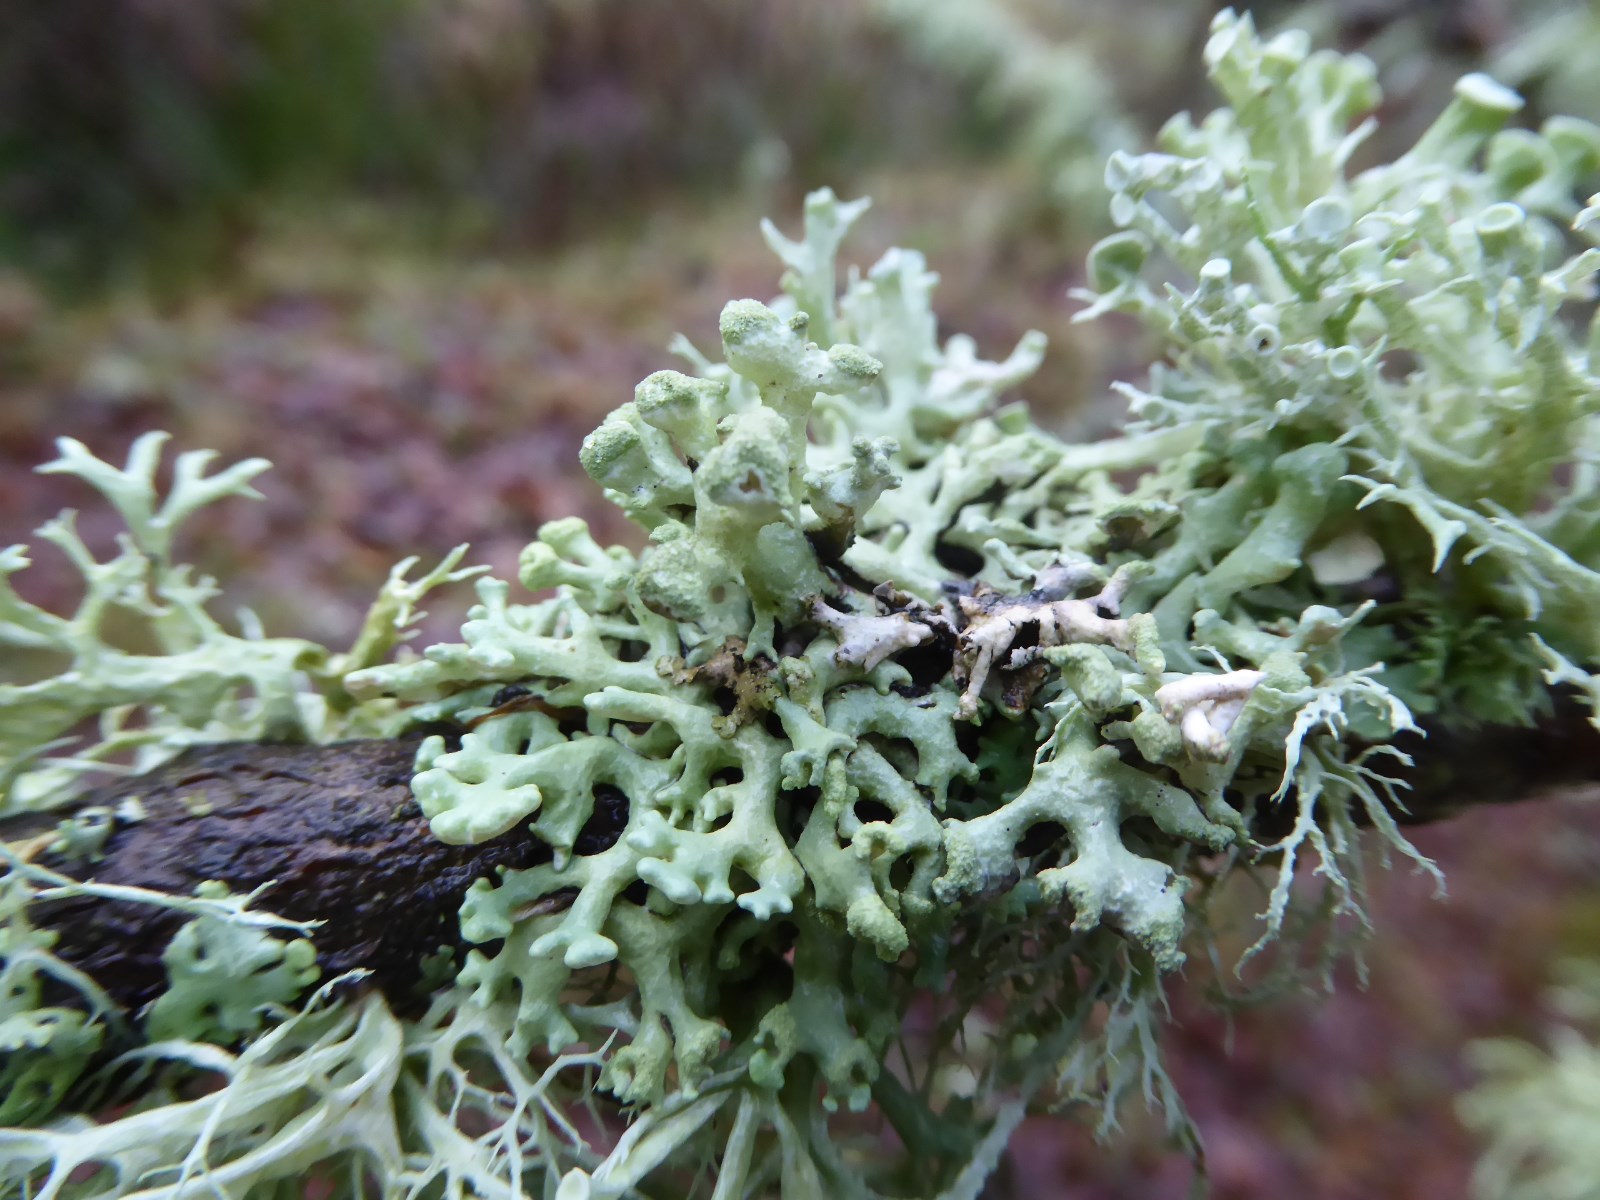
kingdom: Fungi
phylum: Ascomycota
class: Lecanoromycetes
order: Lecanorales
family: Parmeliaceae
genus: Hypogymnia
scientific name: Hypogymnia tubulosa
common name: finger-kvistlav
